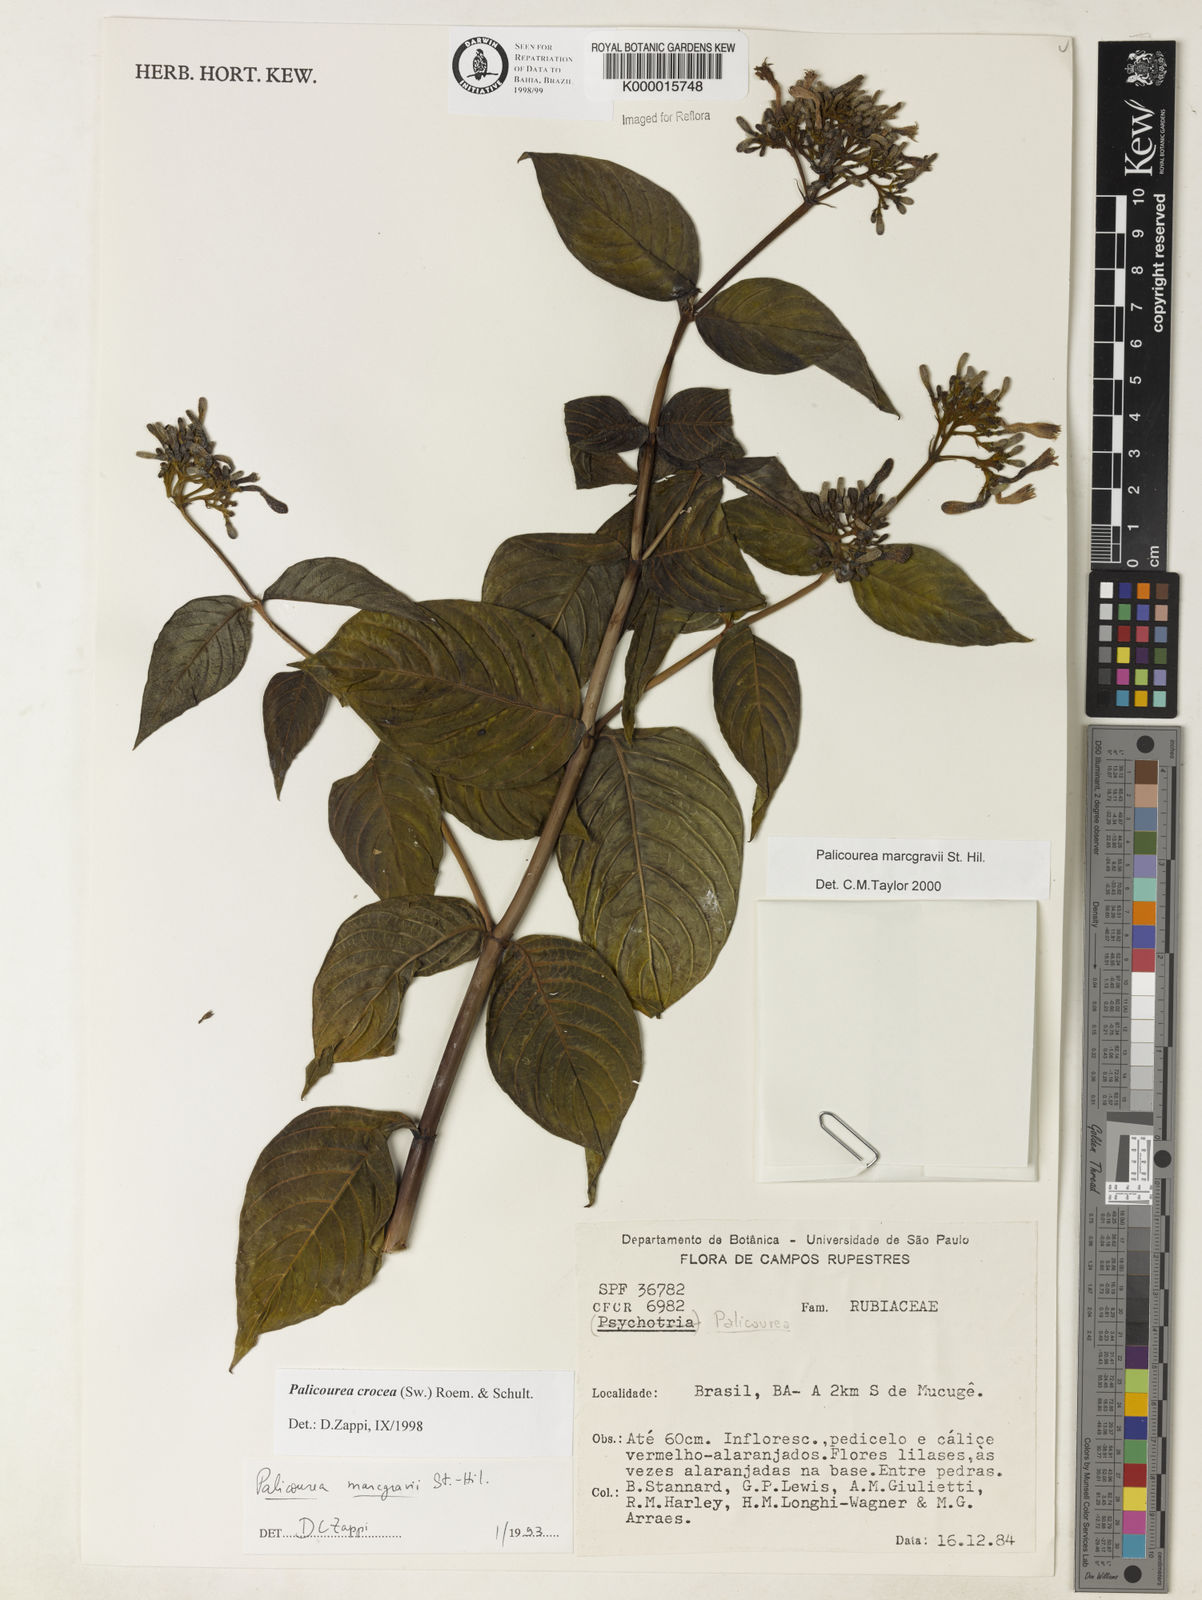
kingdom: Plantae
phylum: Tracheophyta
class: Magnoliopsida
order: Gentianales
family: Rubiaceae
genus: Palicourea
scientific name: Palicourea marcgravii
